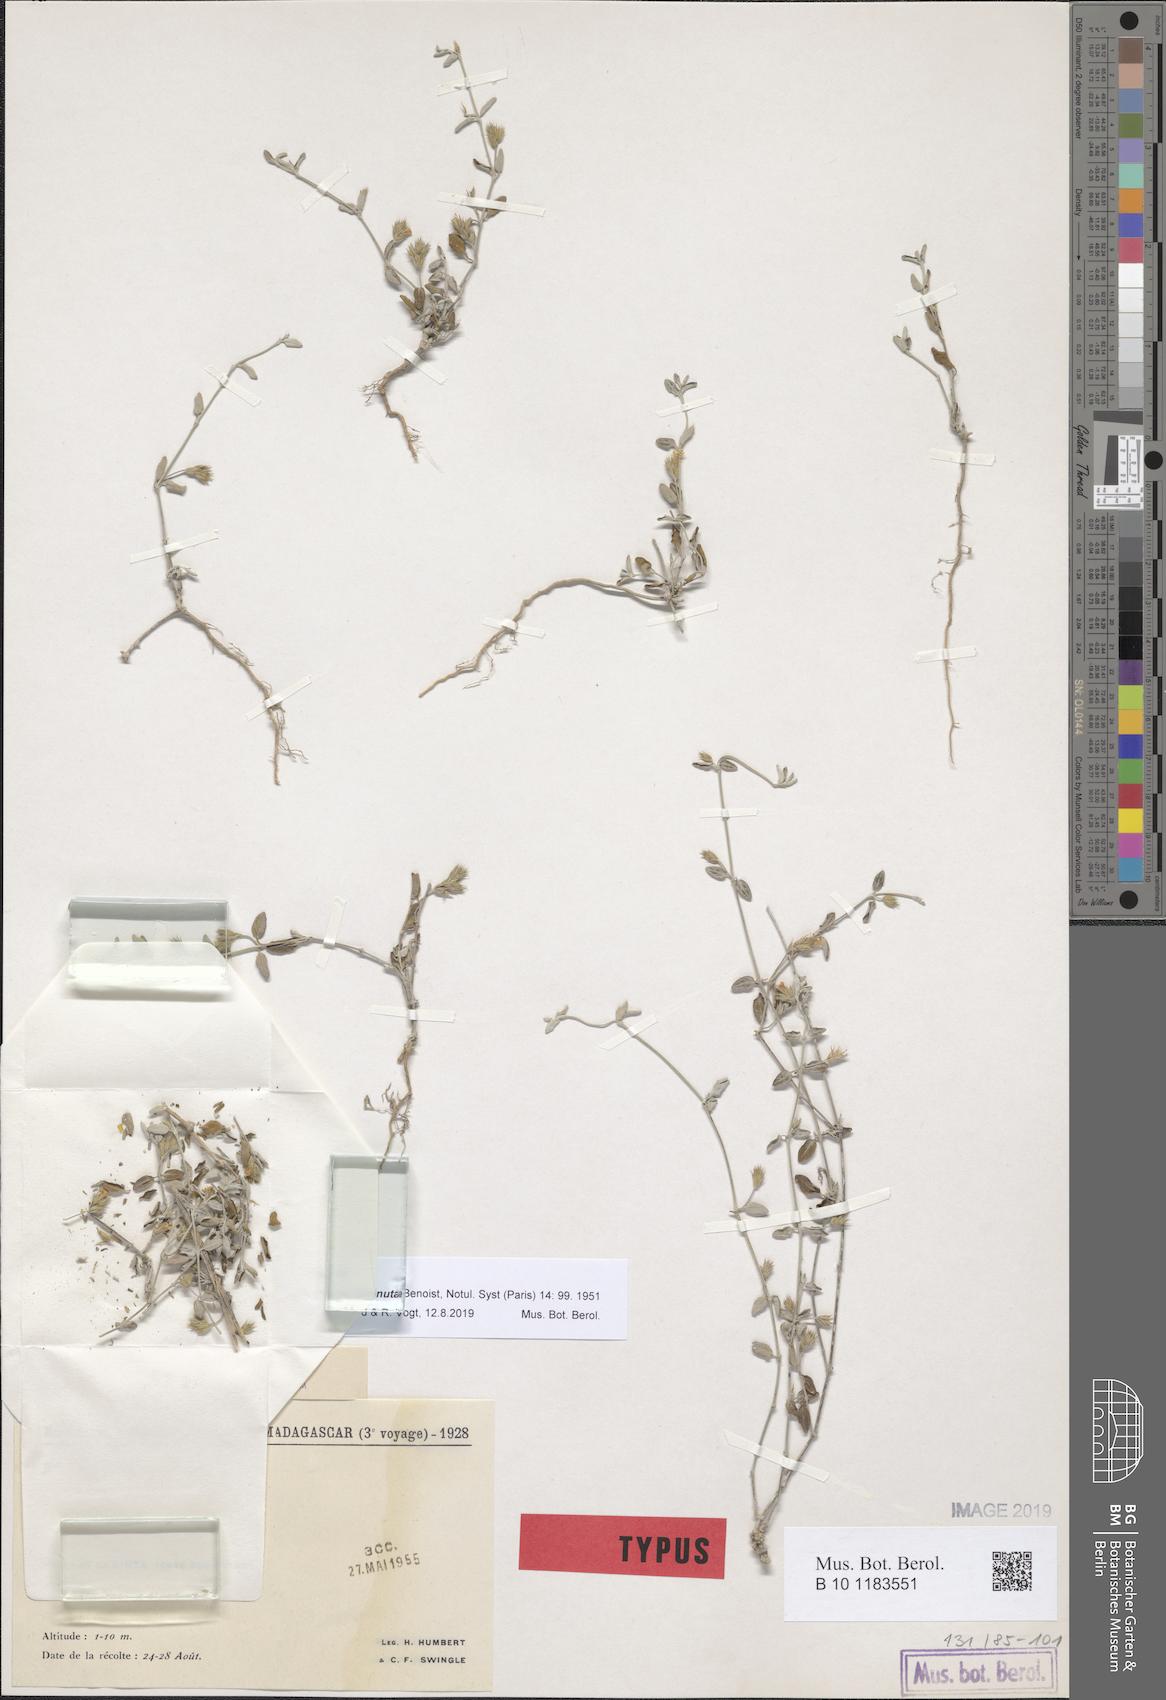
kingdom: Plantae
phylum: Tracheophyta
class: Magnoliopsida
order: Lamiales
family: Acanthaceae
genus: Justicia
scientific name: Justicia diminuta
